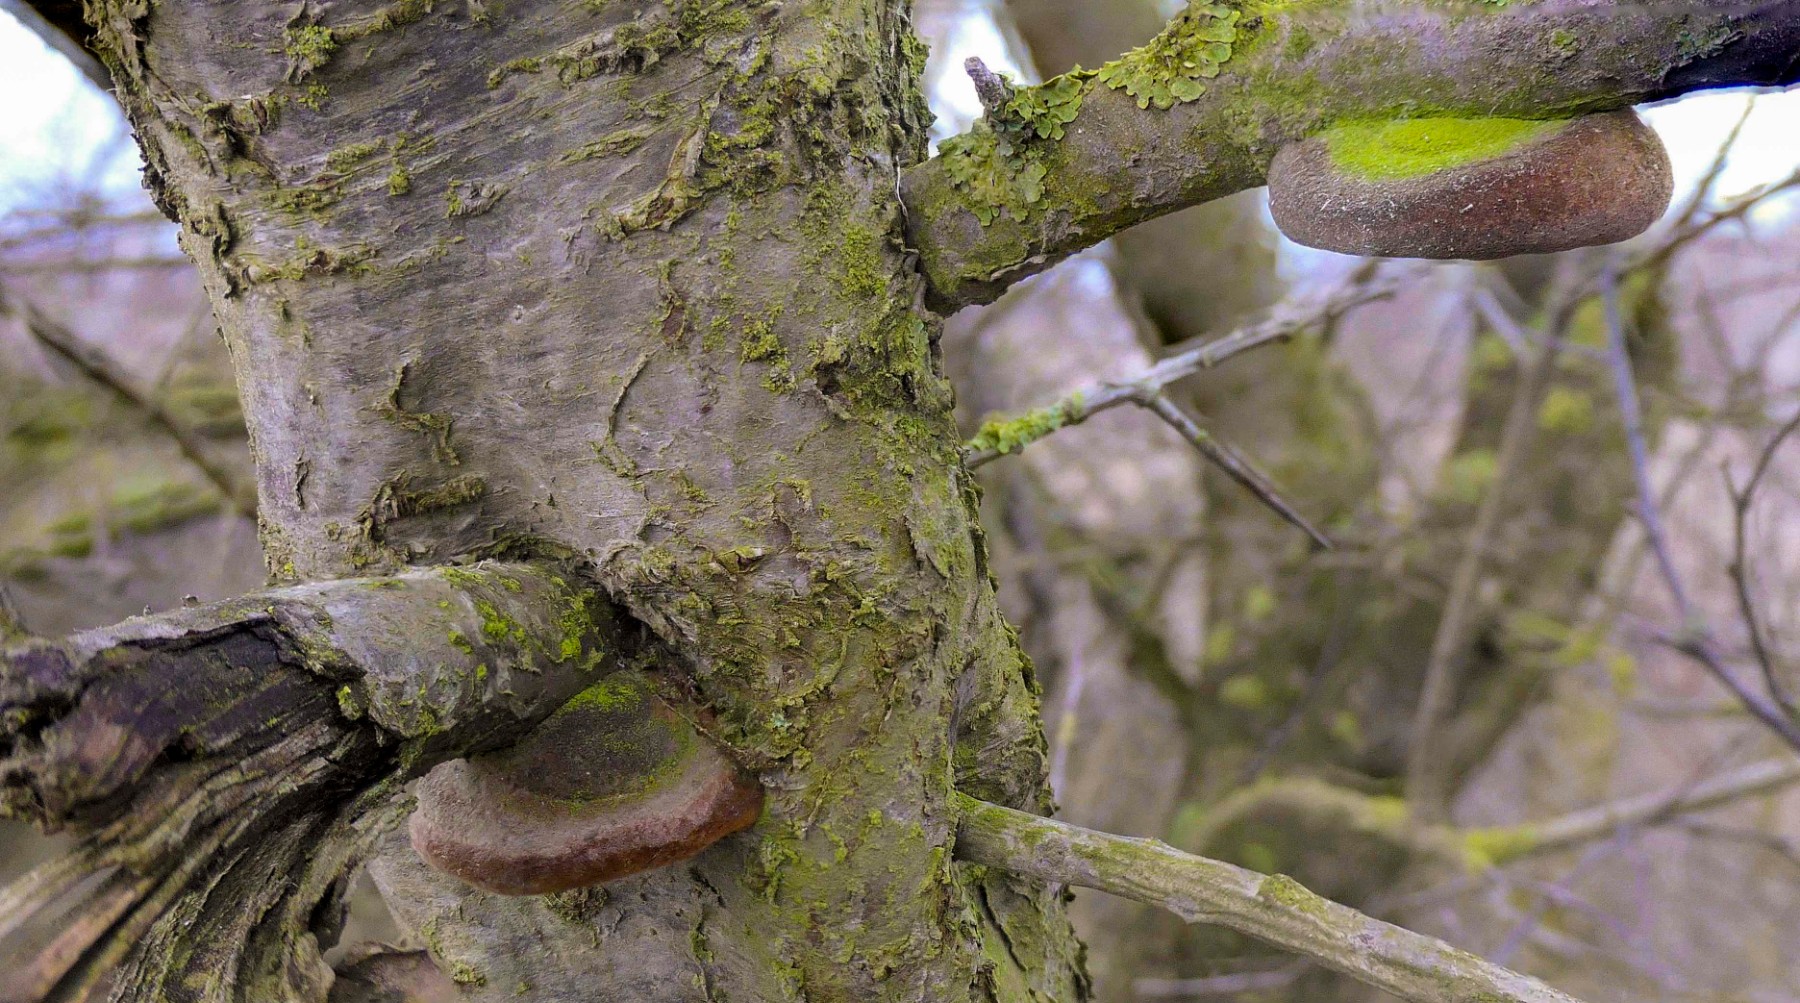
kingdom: Fungi
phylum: Basidiomycota
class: Agaricomycetes
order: Hymenochaetales
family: Hymenochaetaceae
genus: Fomitiporia
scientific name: Fomitiporia hippophaeicola
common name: havtorn-ildporesvamp
